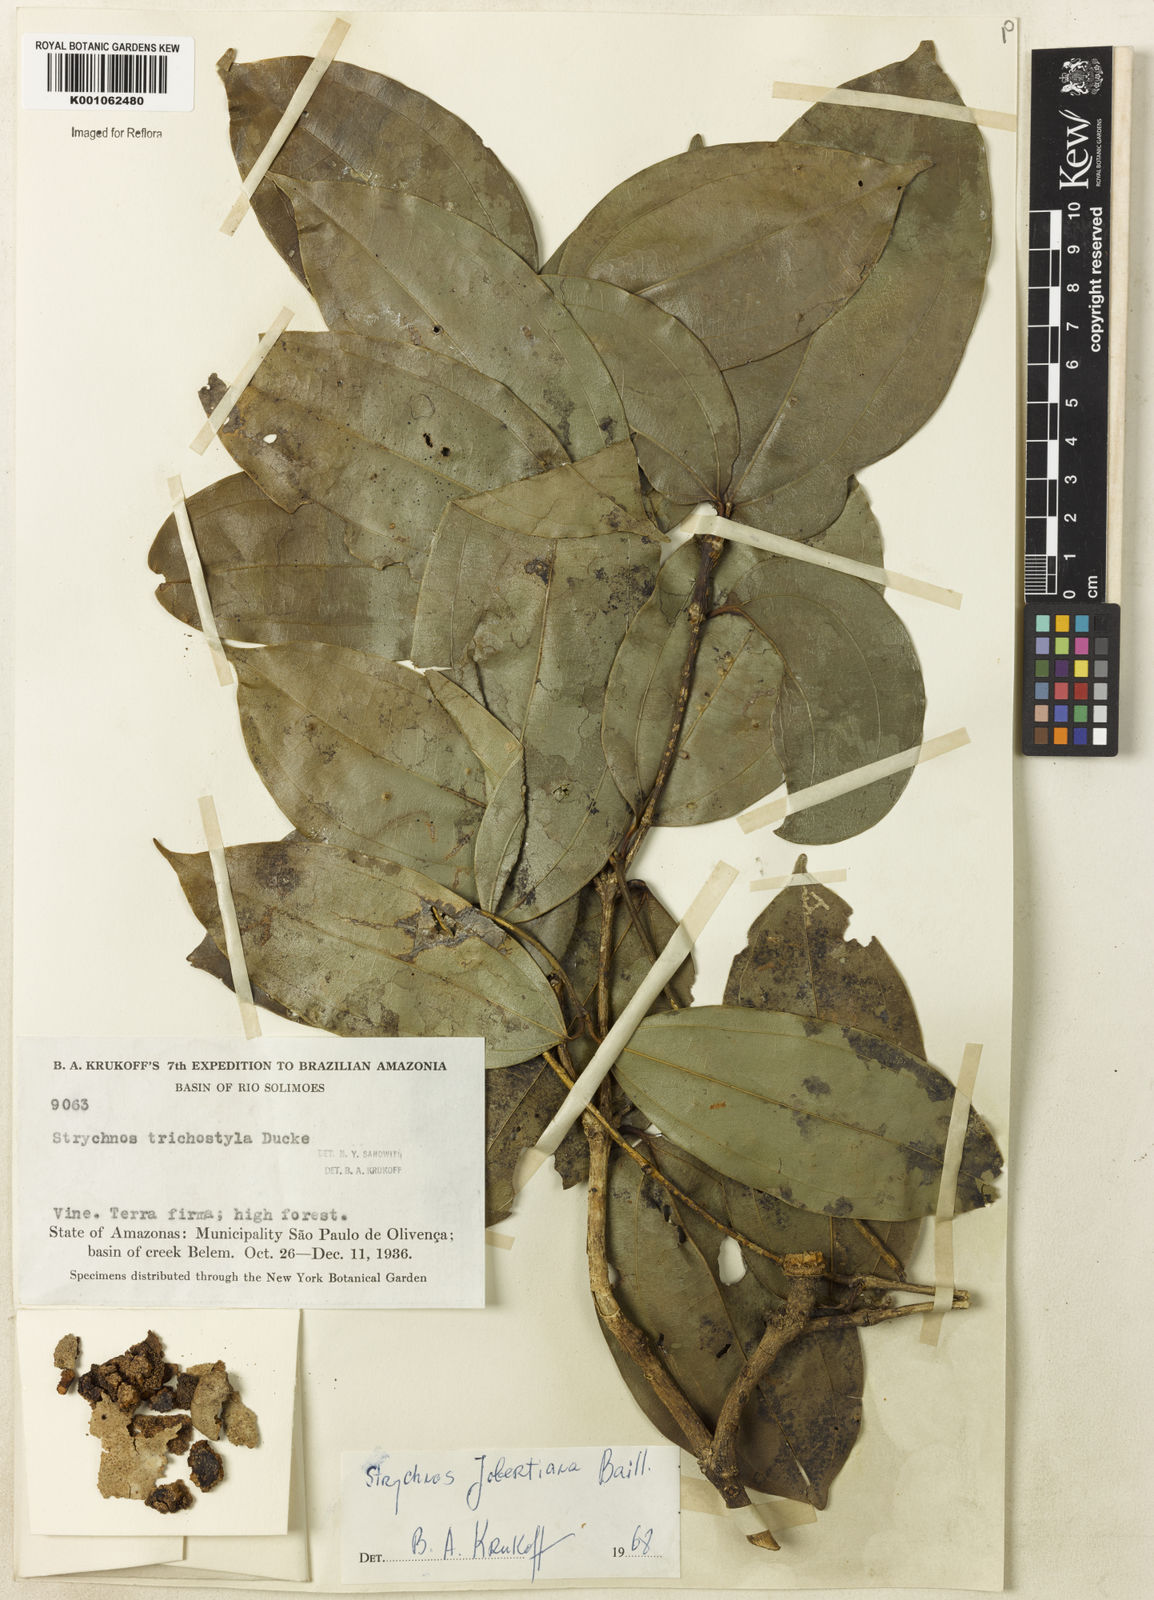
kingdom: Plantae
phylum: Tracheophyta
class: Magnoliopsida
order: Gentianales
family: Loganiaceae
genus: Strychnos
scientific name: Strychnos jobertiana
